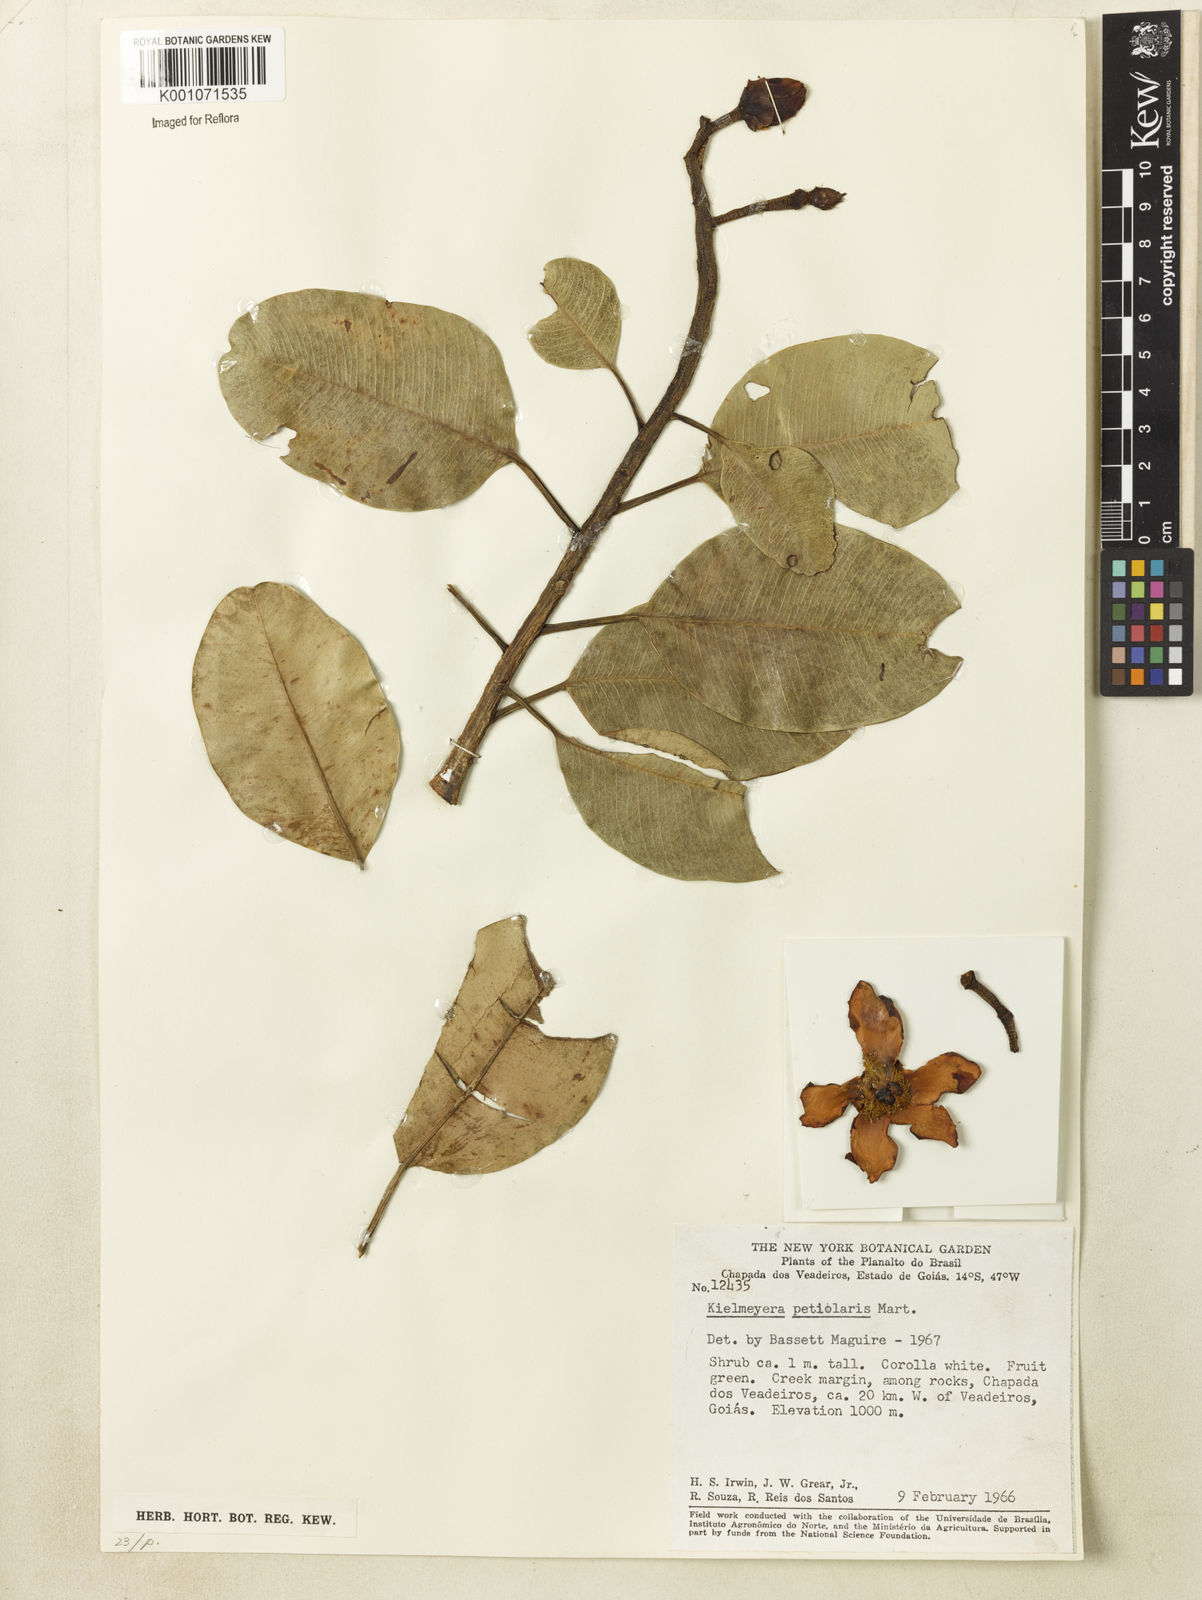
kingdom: Plantae
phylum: Tracheophyta
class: Magnoliopsida
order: Malpighiales
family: Calophyllaceae
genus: Kielmeyera
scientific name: Kielmeyera petiolaris
